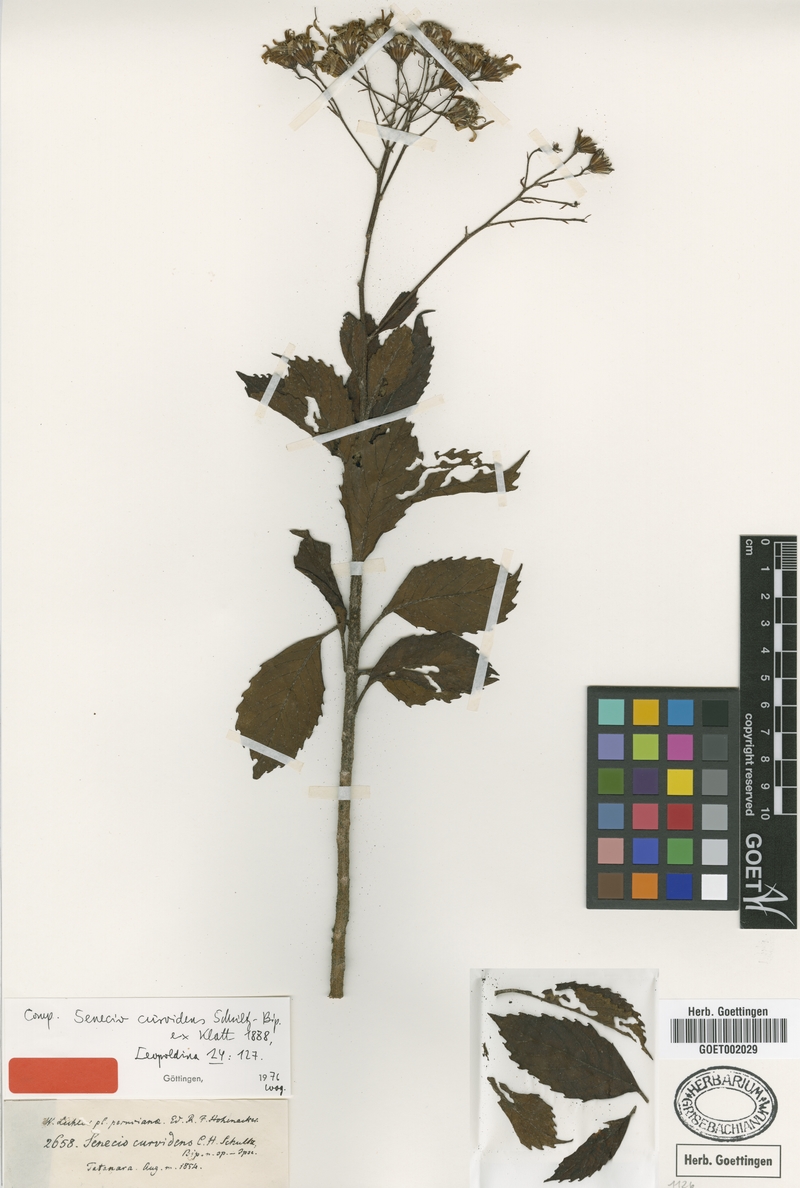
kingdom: Plantae
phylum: Tracheophyta
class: Magnoliopsida
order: Asterales
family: Asteraceae
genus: Dendrophorbium
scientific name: Dendrophorbium curvidens
